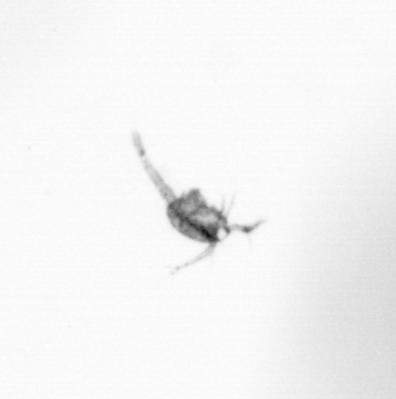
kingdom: Animalia
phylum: Arthropoda
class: Copepoda
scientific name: Copepoda
